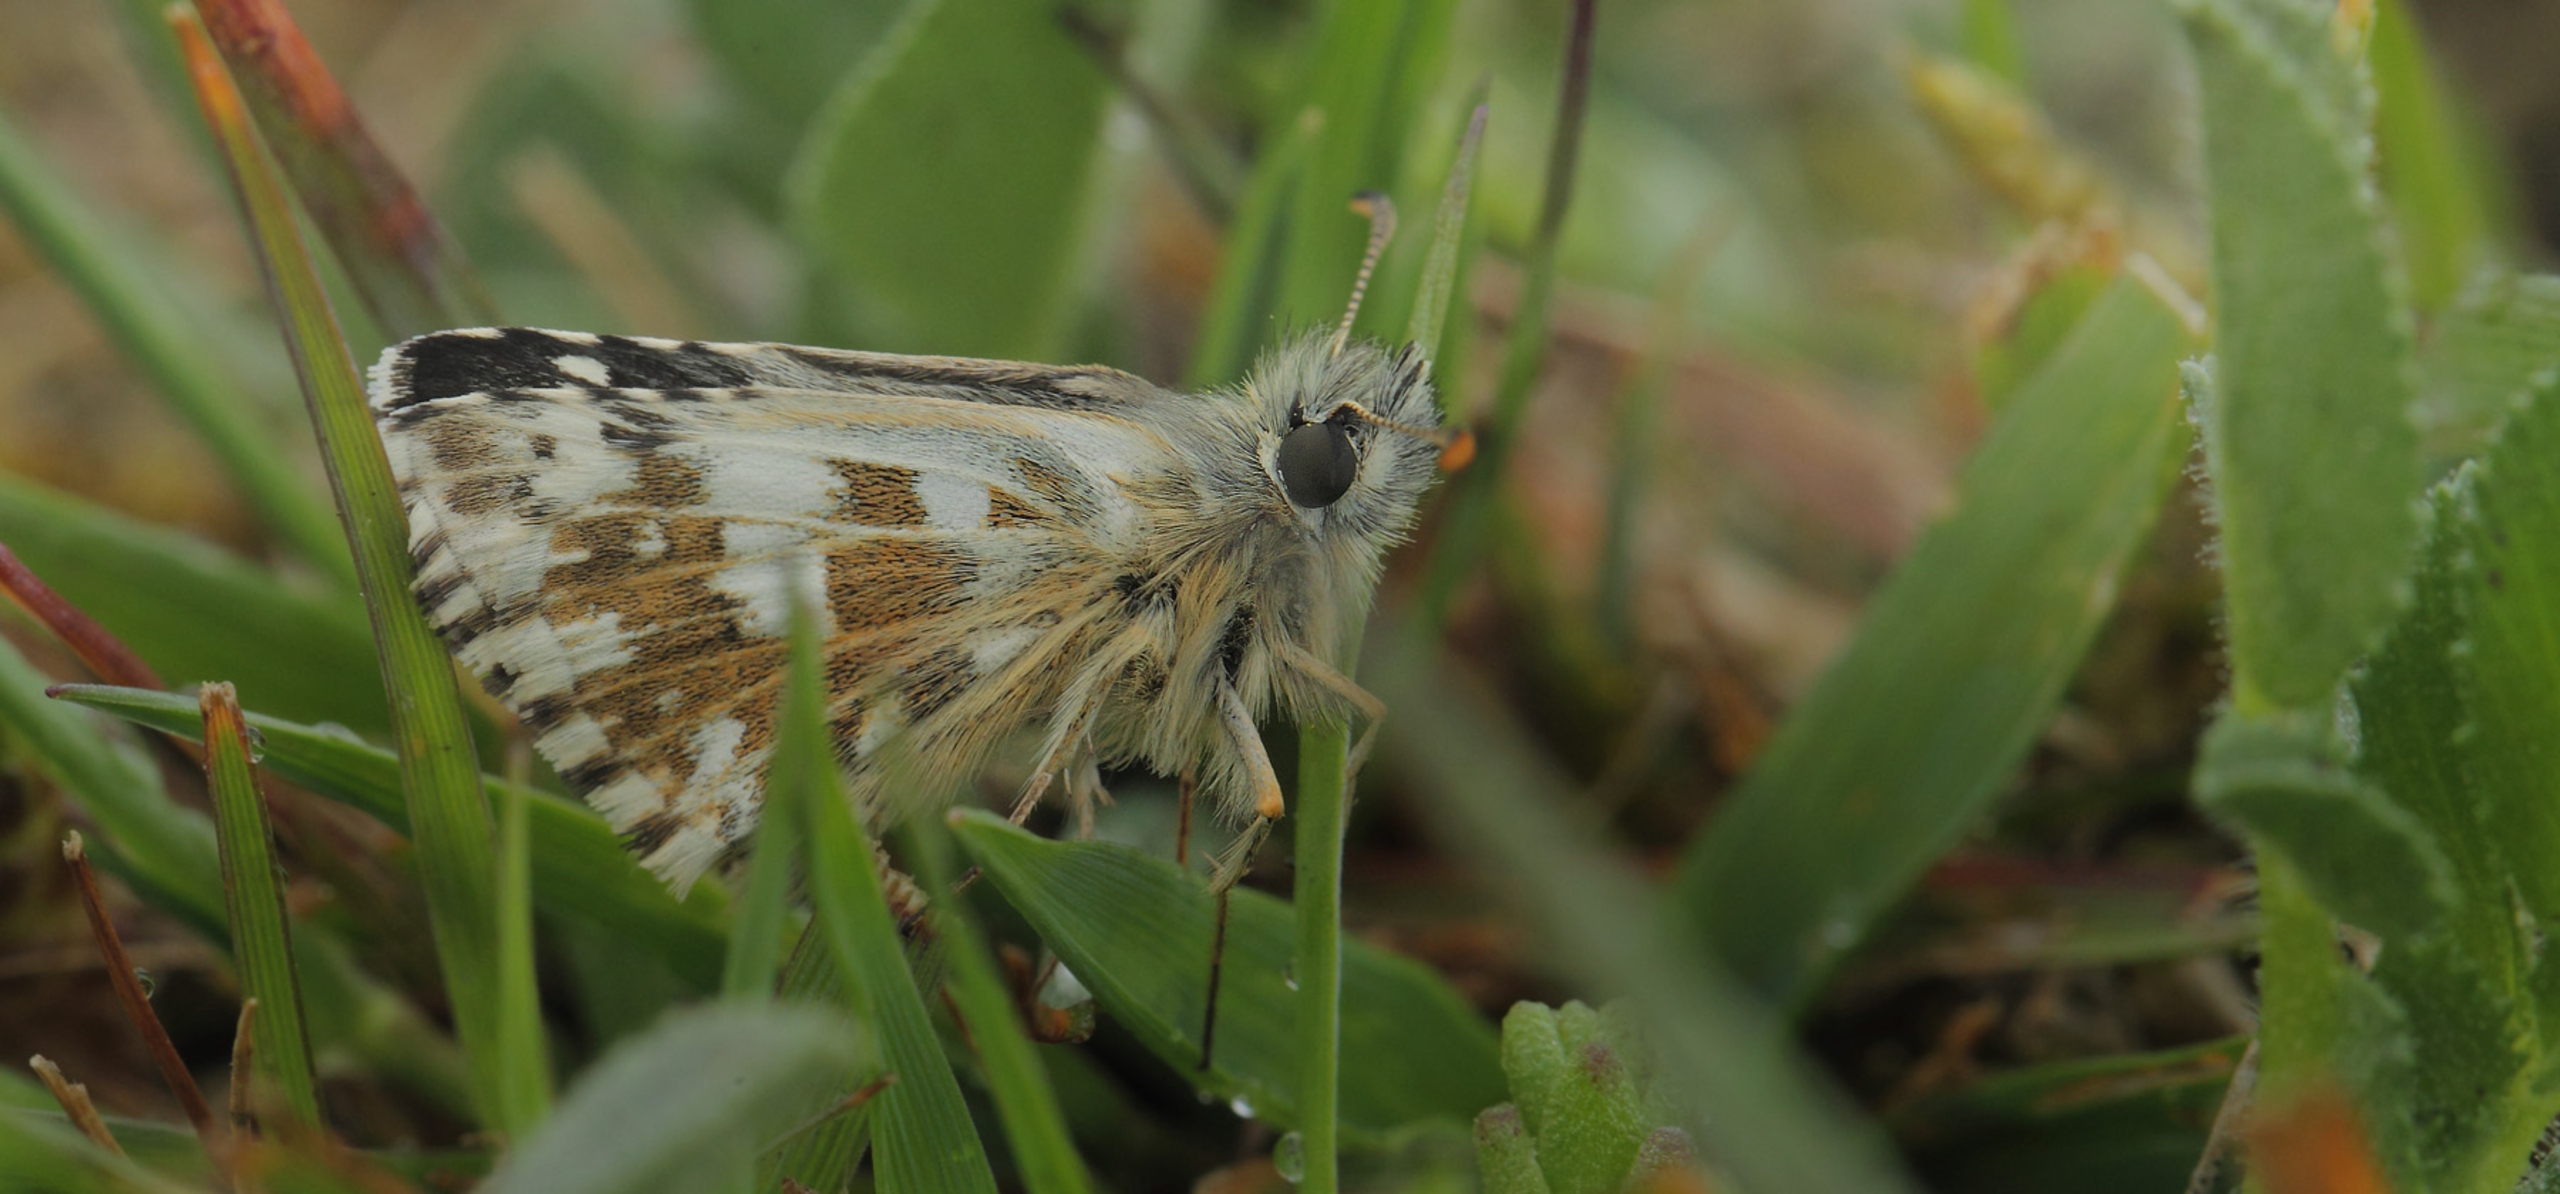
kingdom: Animalia
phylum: Arthropoda
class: Insecta
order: Lepidoptera
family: Hesperiidae
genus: Pyrgus
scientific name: Pyrgus armoricanus
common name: Fransk bredpande
